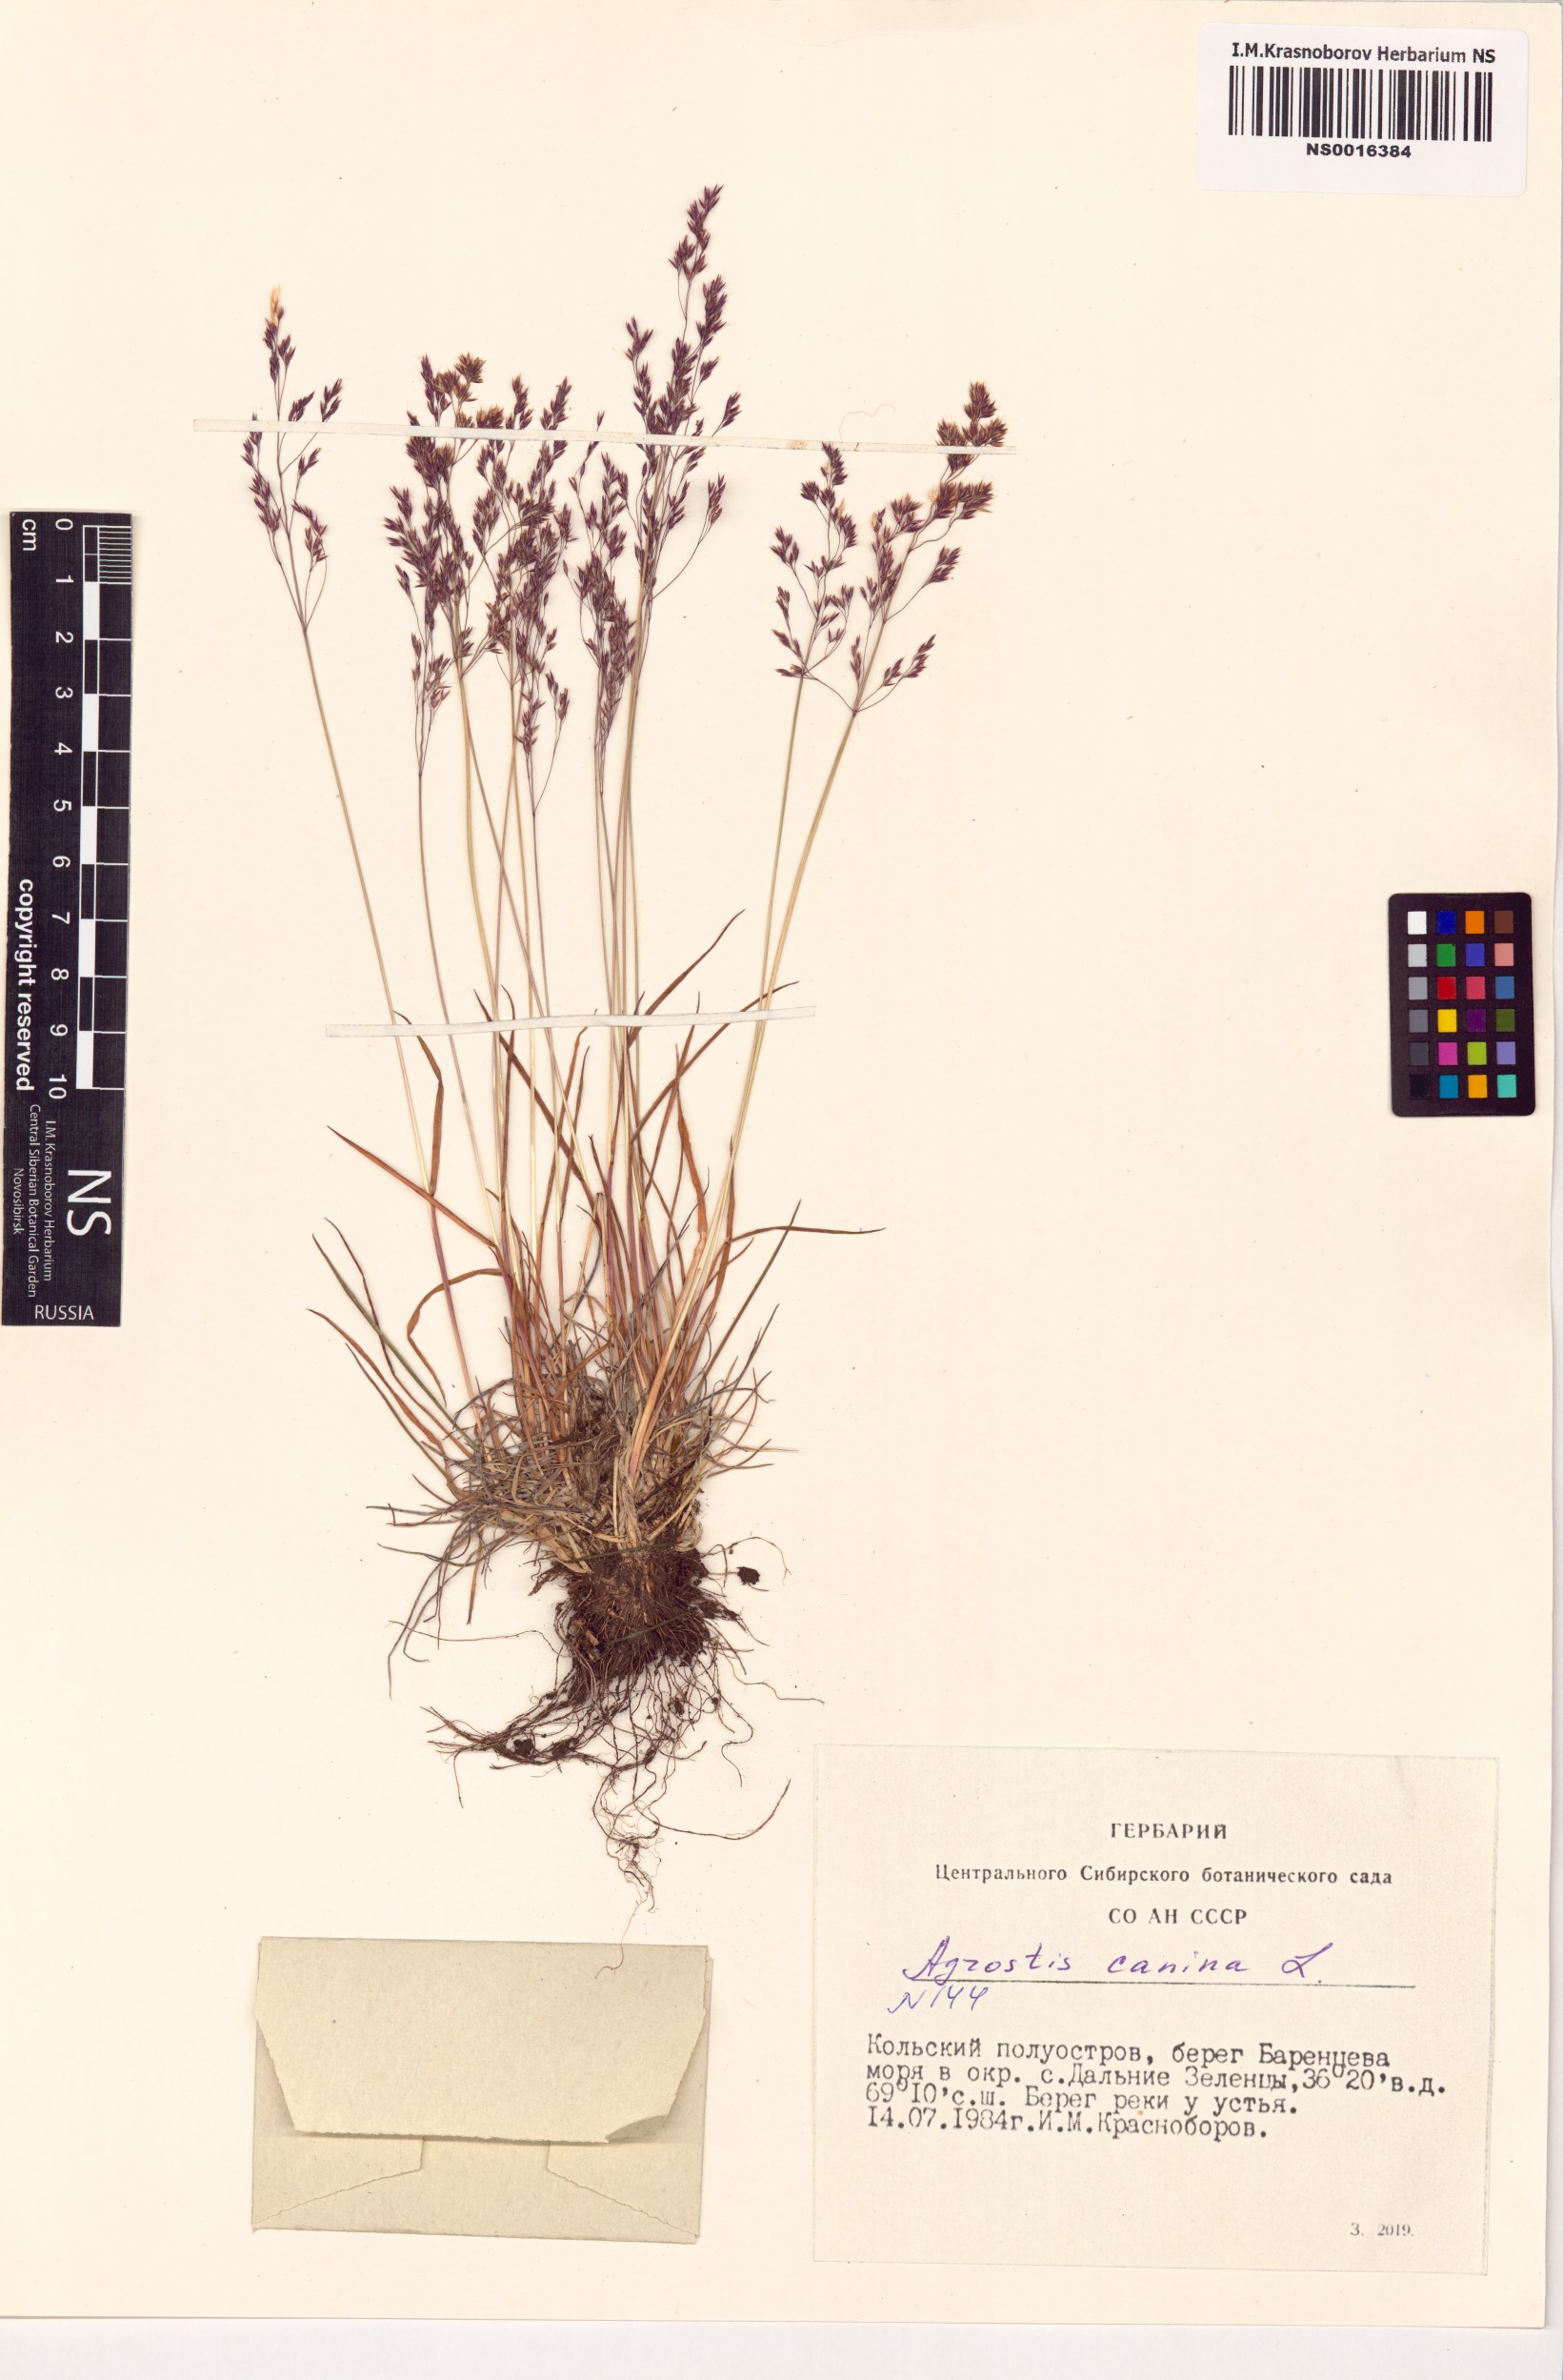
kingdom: Plantae
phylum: Tracheophyta
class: Liliopsida
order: Poales
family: Poaceae
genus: Agrostis
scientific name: Agrostis canina
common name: Velvet bent
